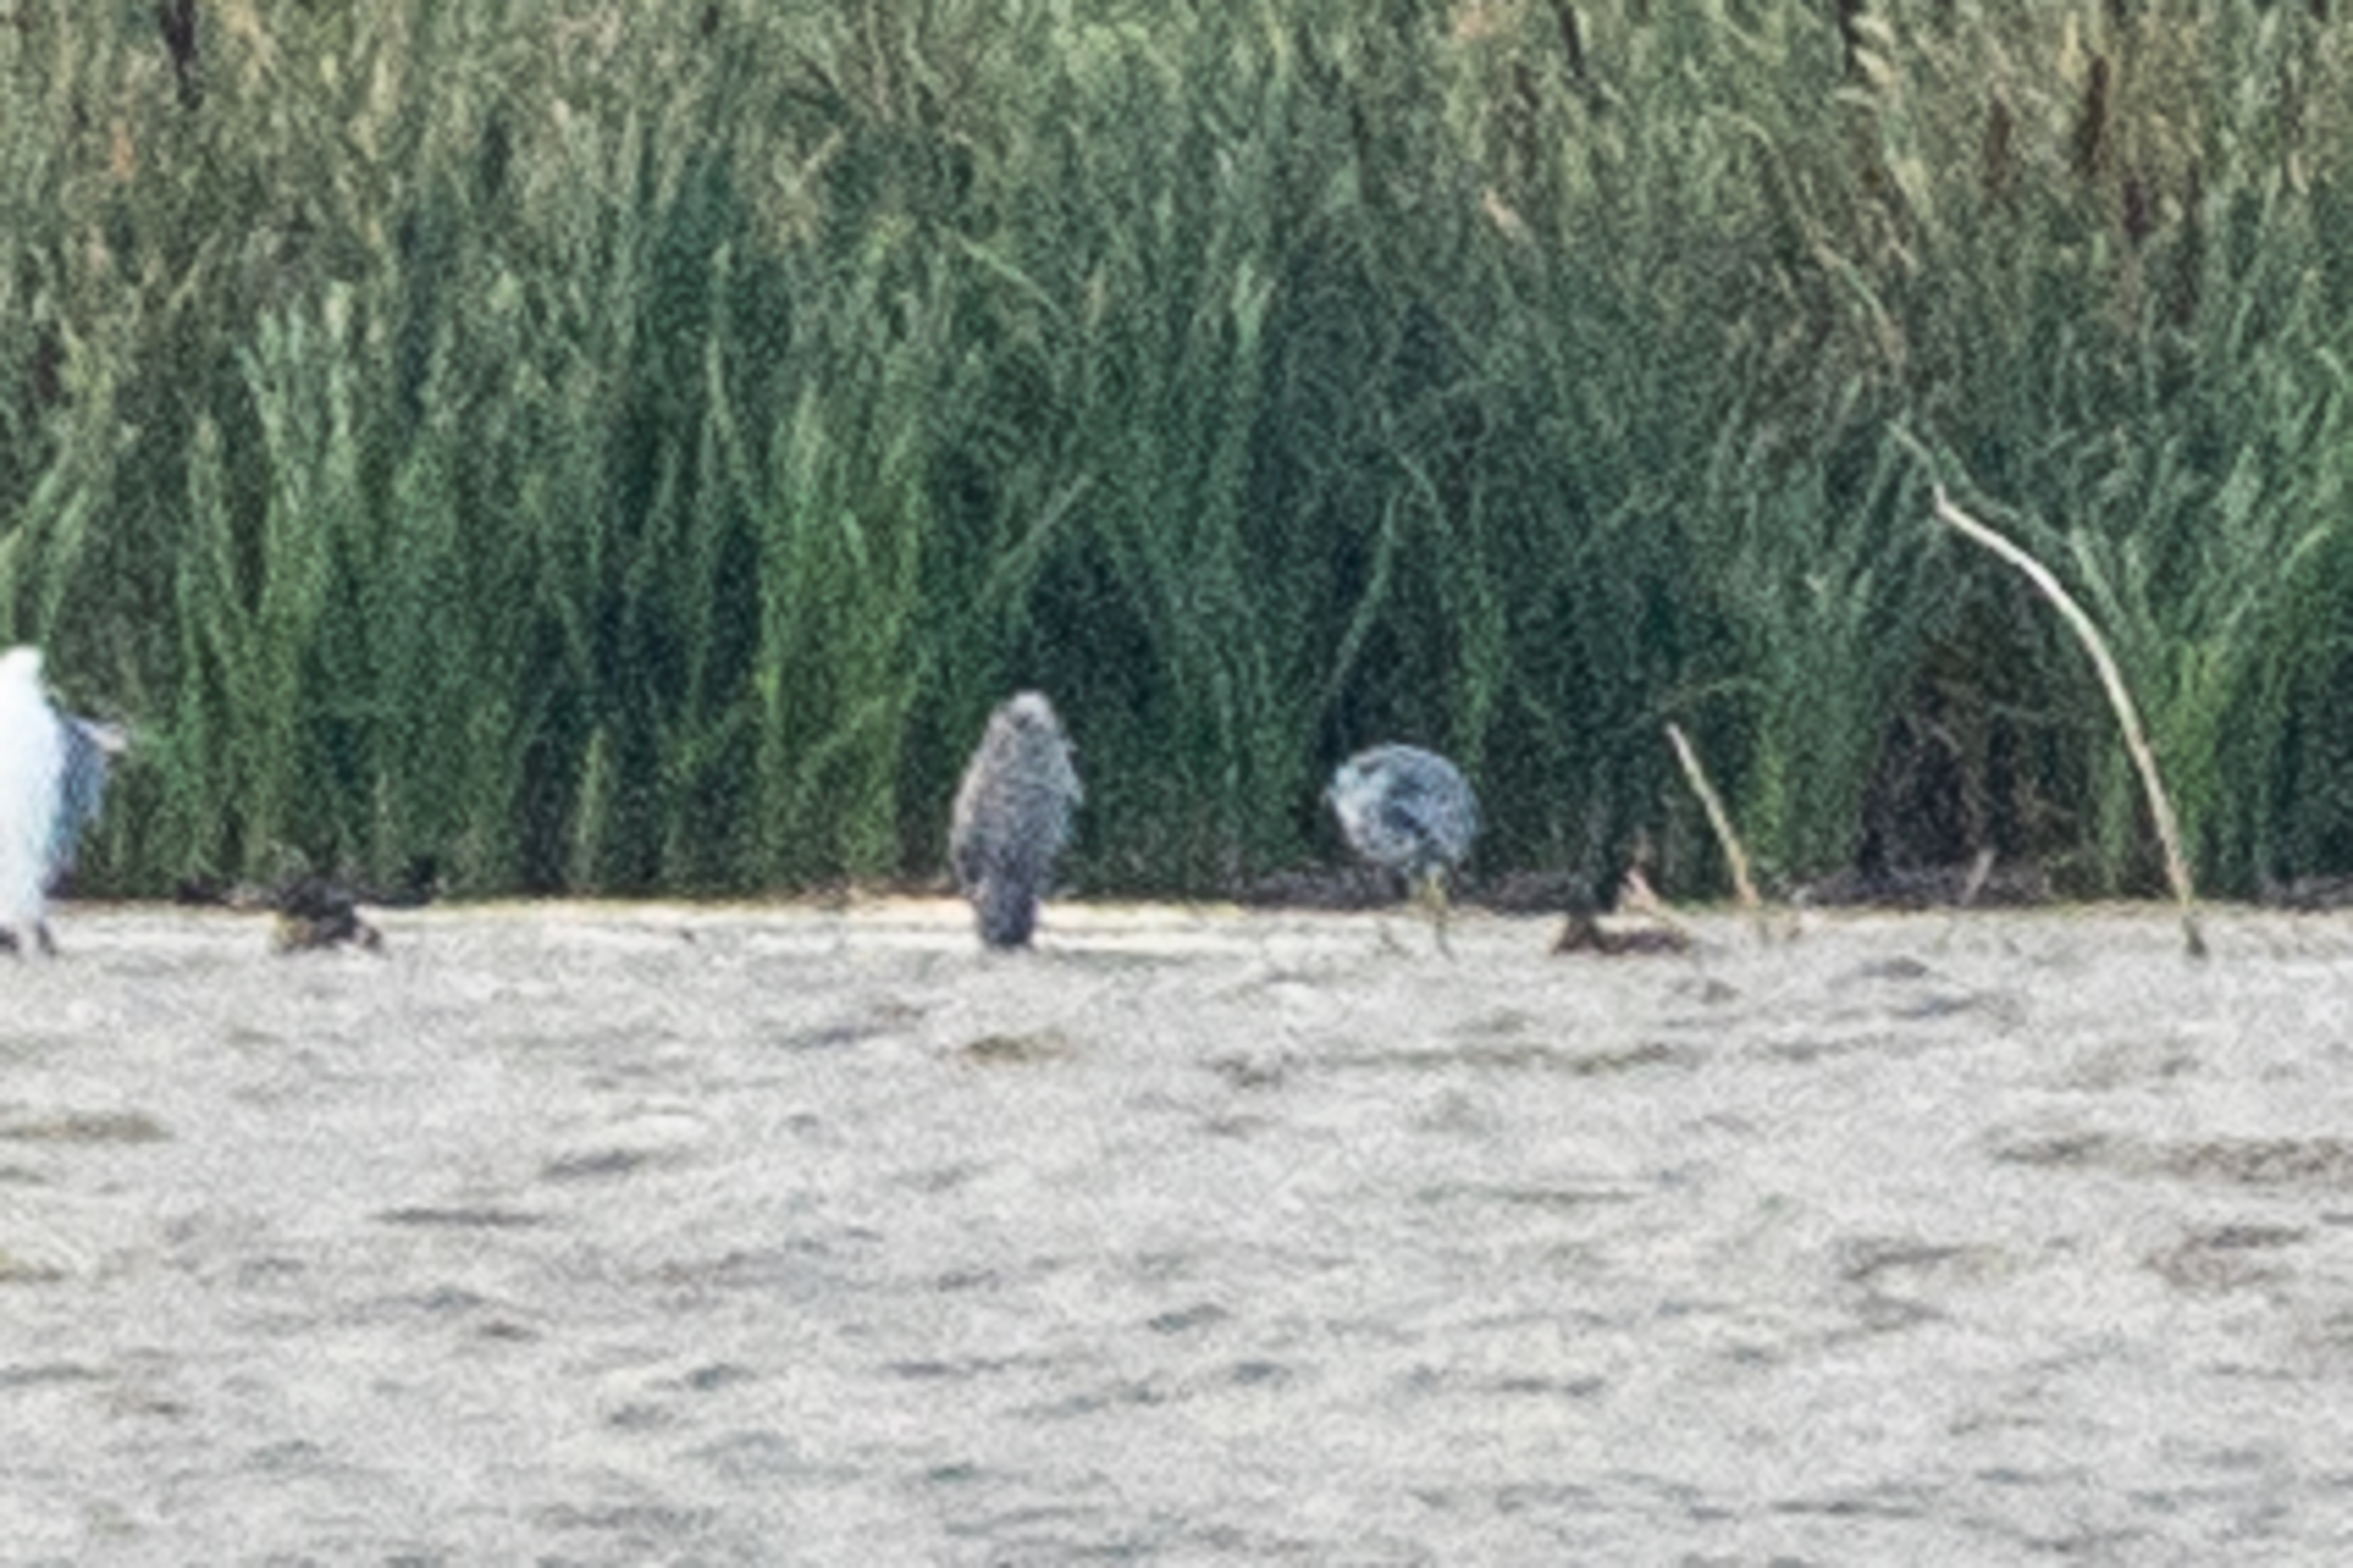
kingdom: Animalia
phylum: Chordata
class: Aves
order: Pelecaniformes
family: Ardeidae
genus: Ardea
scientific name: Ardea cinerea
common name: Fiskehejre
